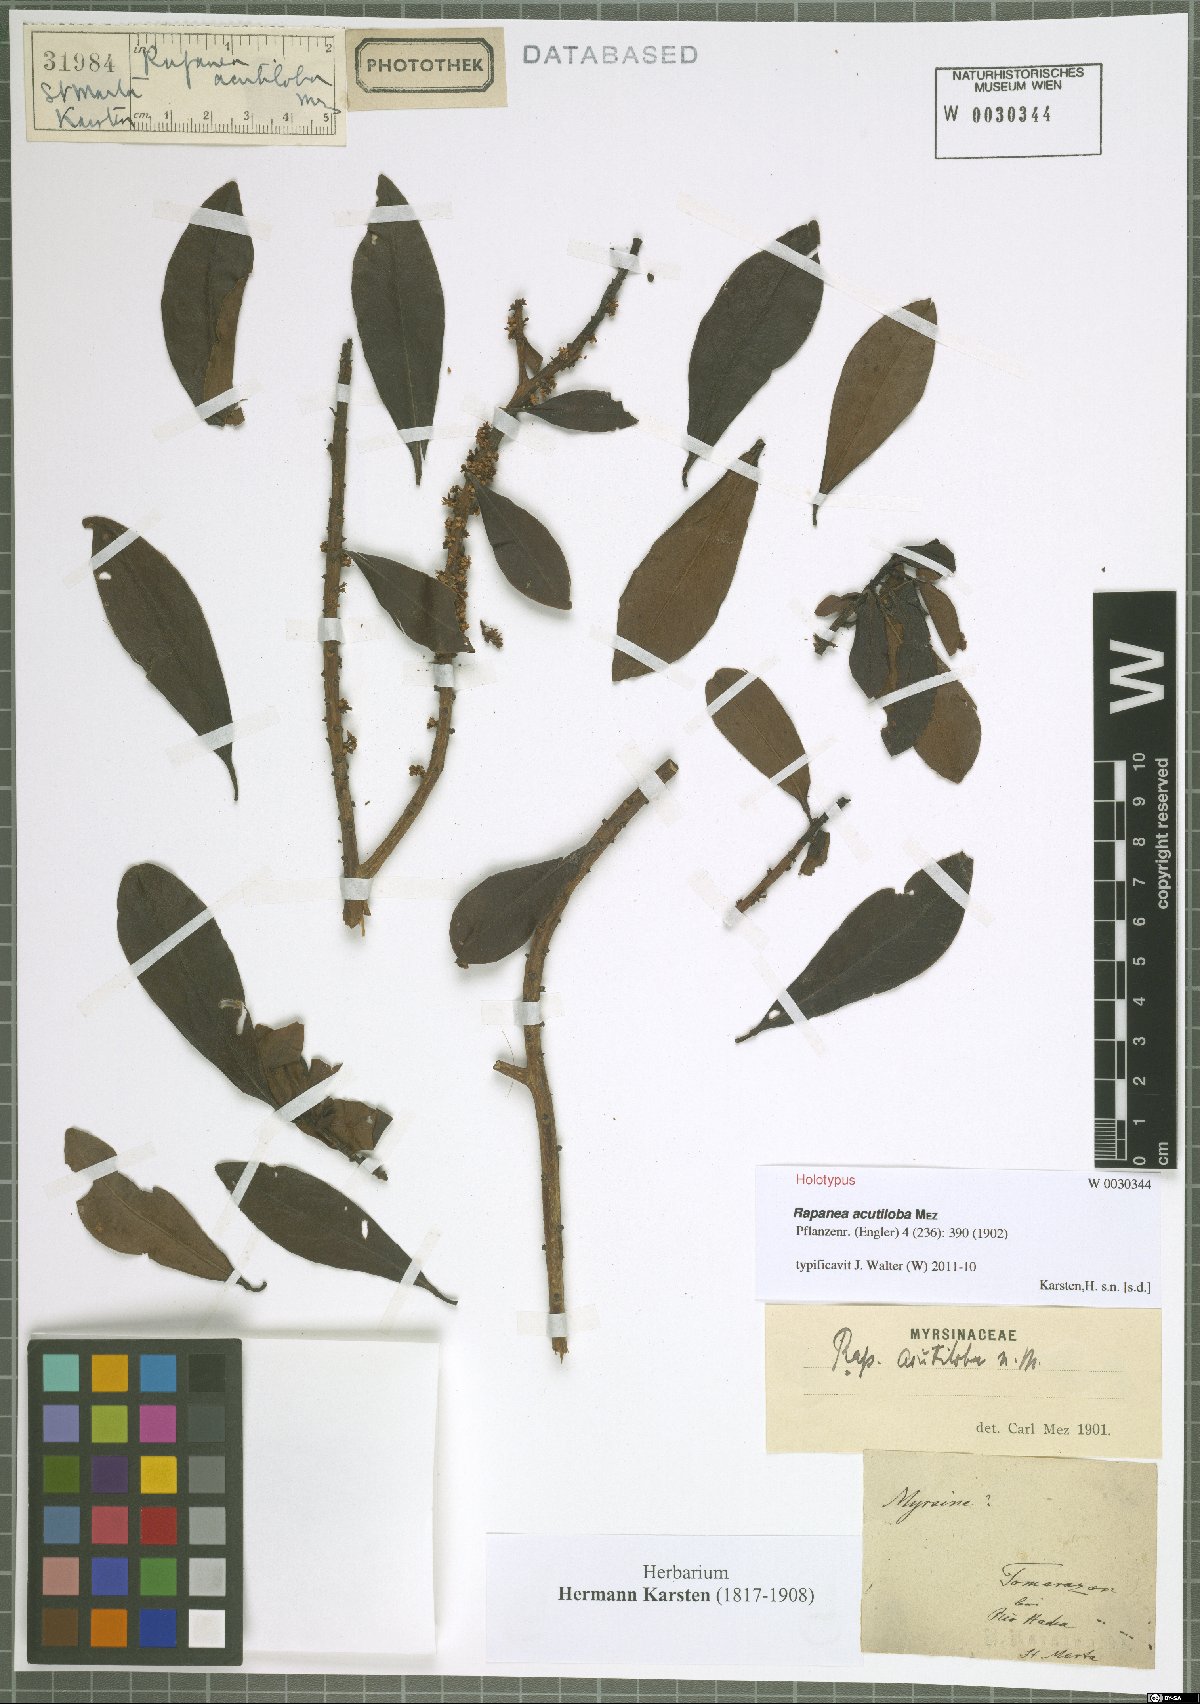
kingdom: Plantae
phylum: Tracheophyta
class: Magnoliopsida
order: Ericales
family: Primulaceae
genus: Myrsine
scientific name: Myrsine acutiloba
